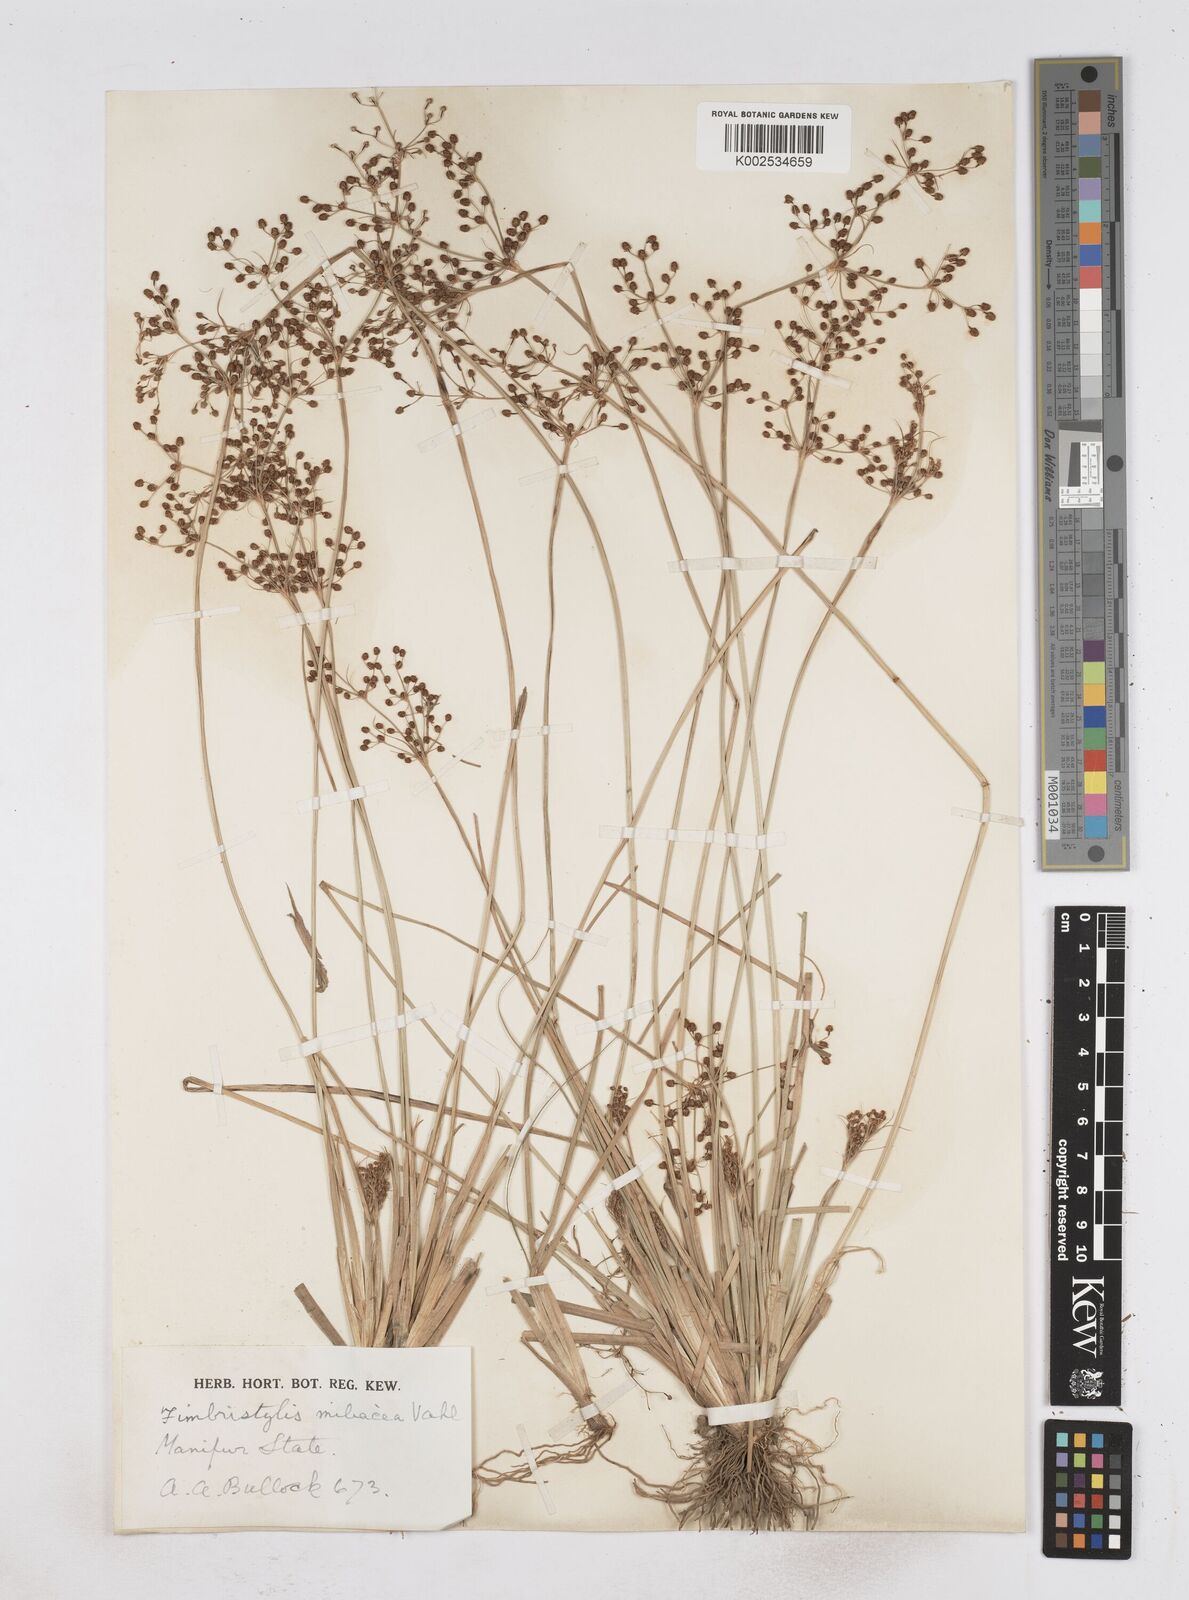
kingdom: Plantae
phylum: Tracheophyta
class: Liliopsida
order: Poales
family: Cyperaceae
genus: Fimbristylis
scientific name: Fimbristylis littoralis
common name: Fimbry
